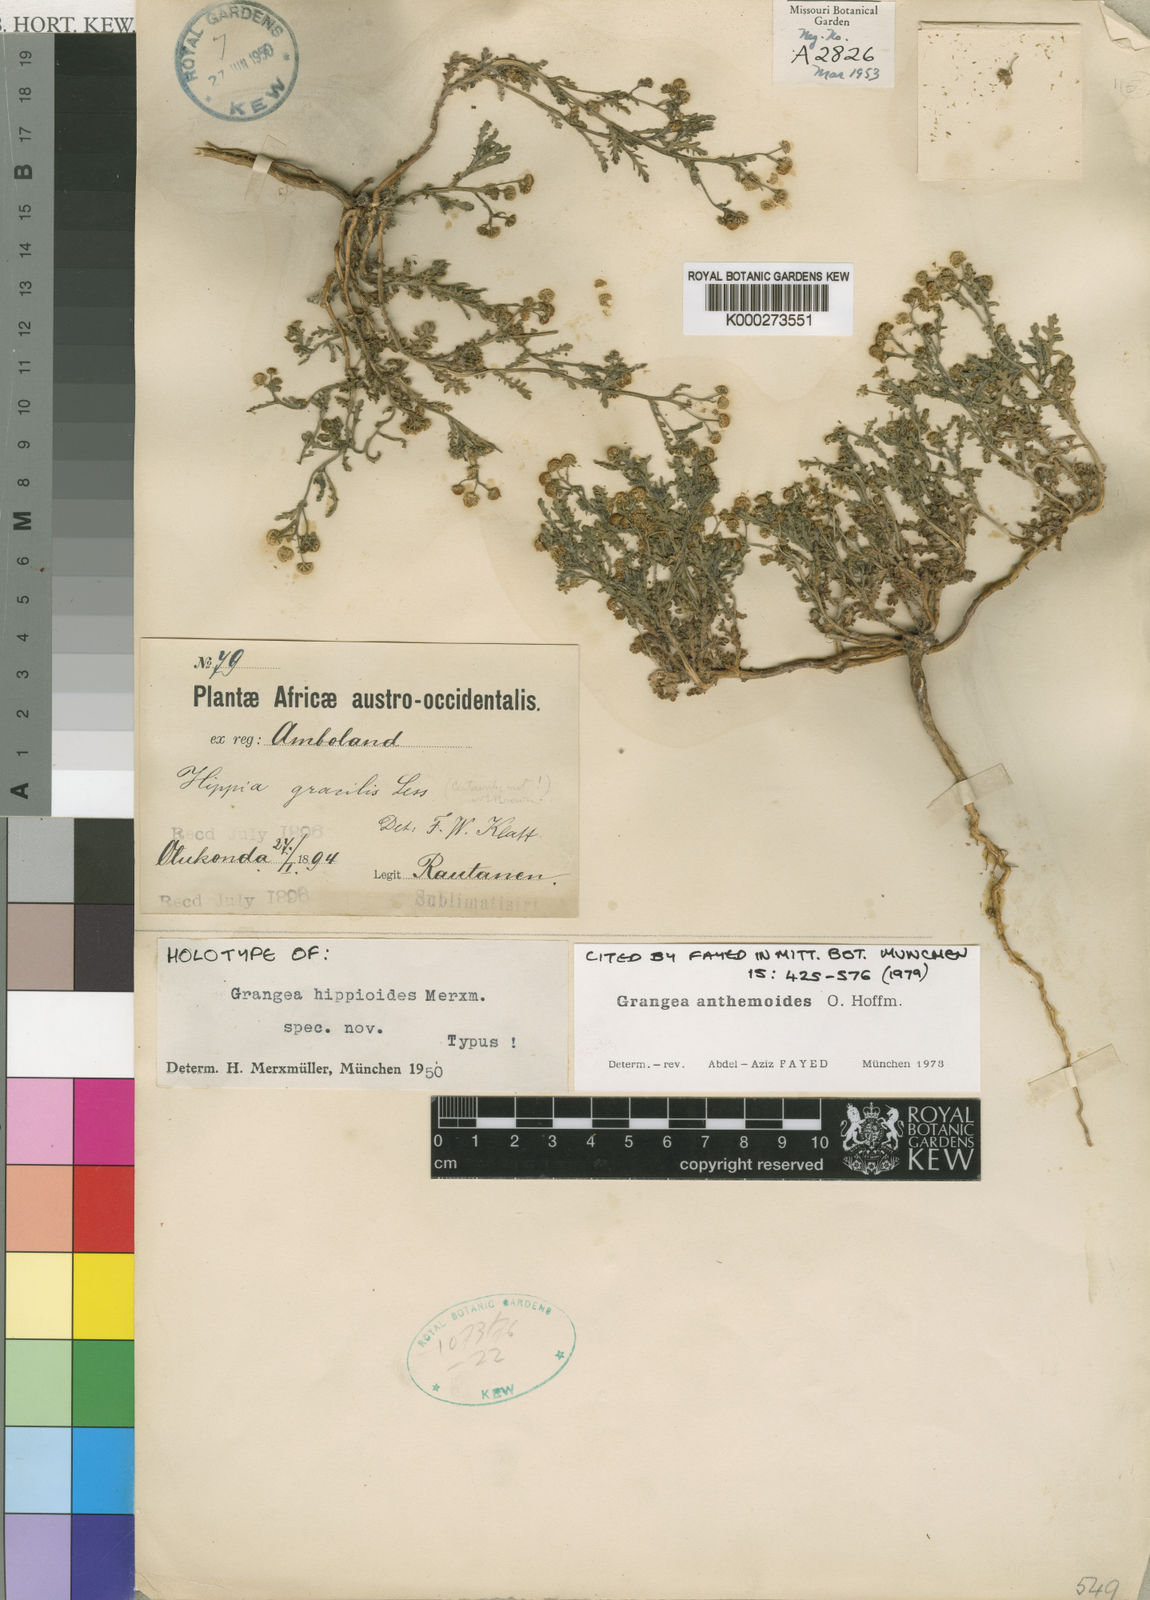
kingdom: Plantae
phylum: Tracheophyta
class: Magnoliopsida
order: Asterales
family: Asteraceae
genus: Grangea
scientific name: Grangea anthemoides
